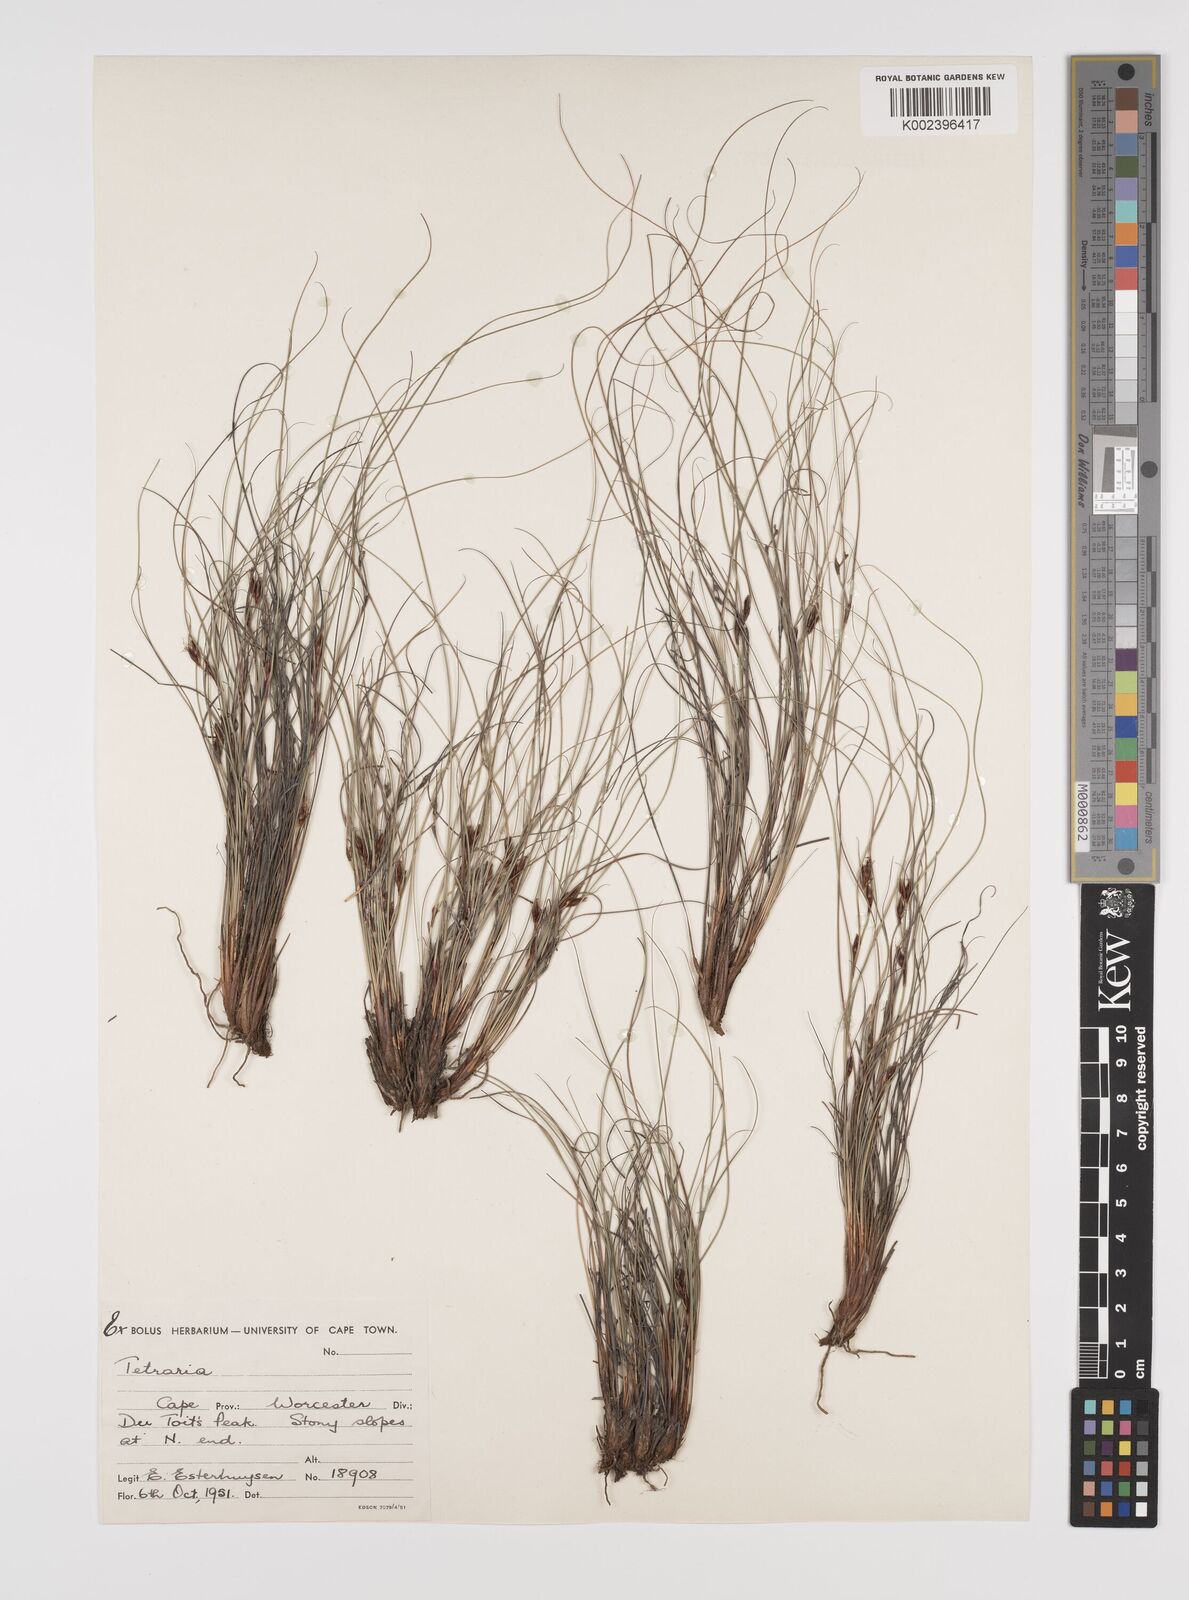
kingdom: Plantae
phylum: Tracheophyta
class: Liliopsida
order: Poales
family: Cyperaceae
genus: Tetraria
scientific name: Tetraria
